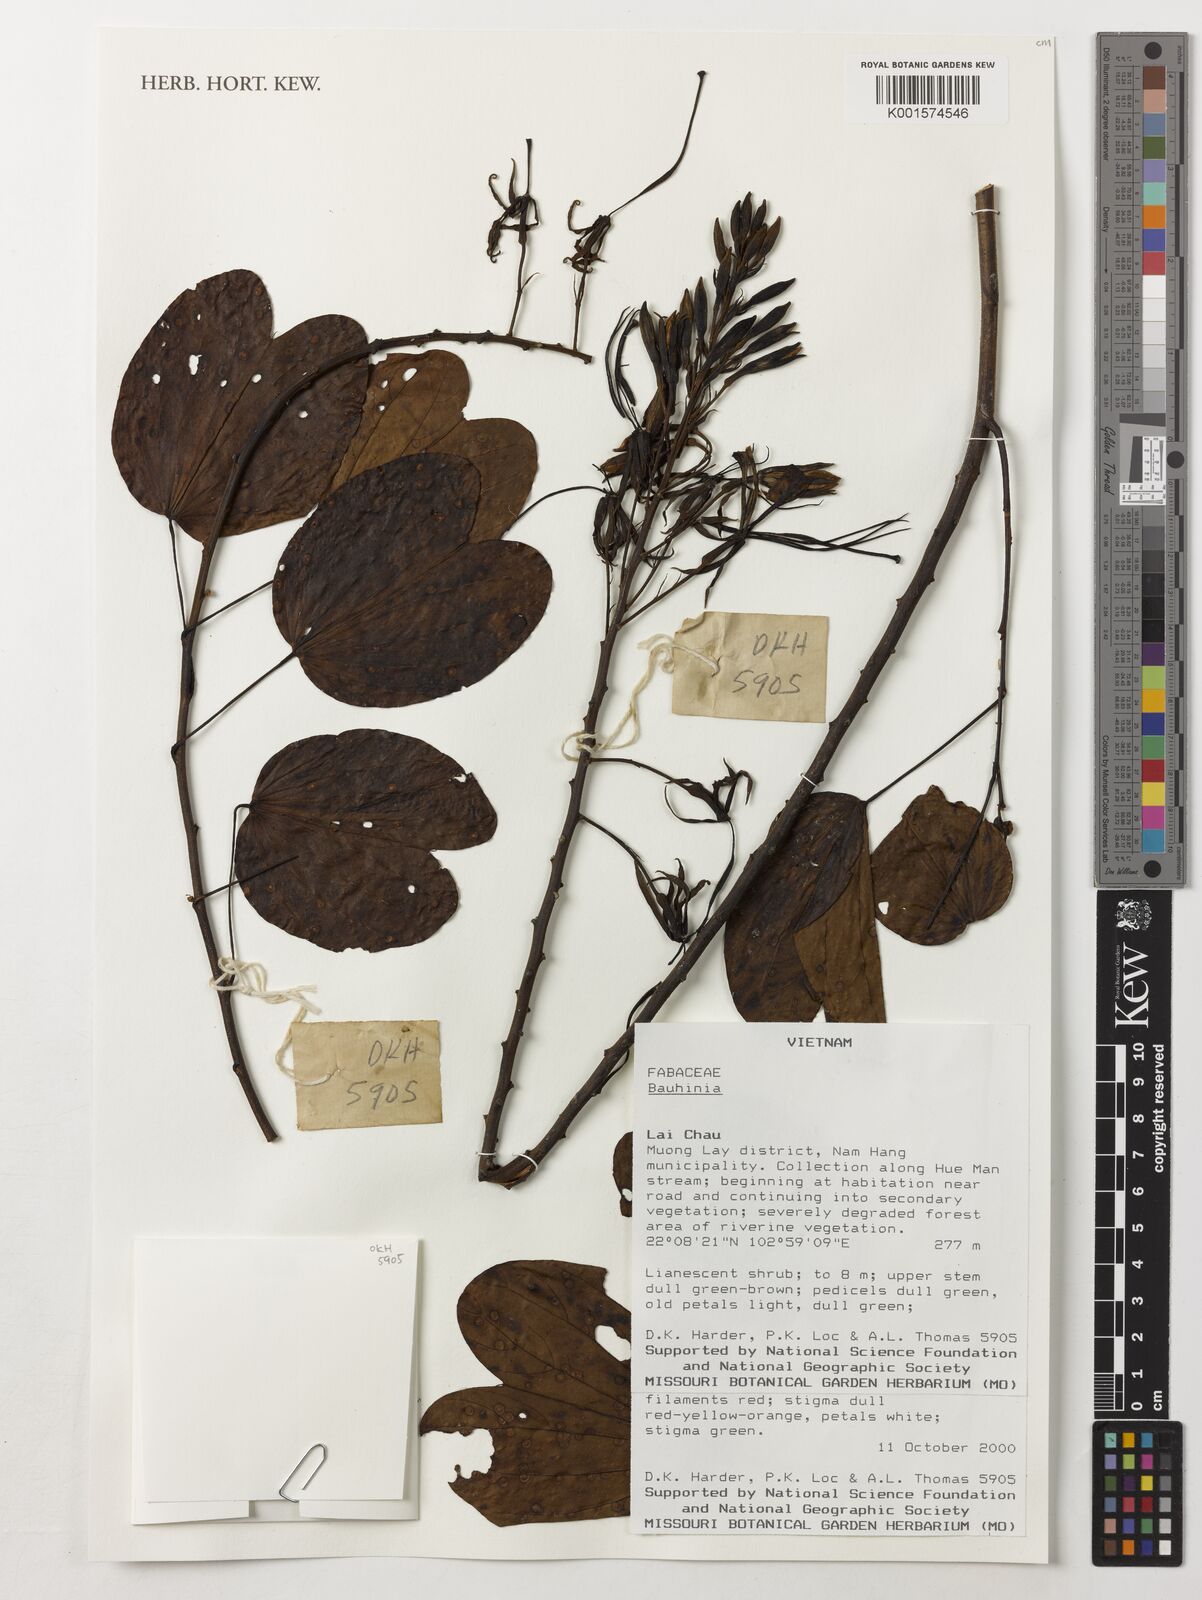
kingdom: Plantae
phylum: Tracheophyta
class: Magnoliopsida
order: Fabales
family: Fabaceae
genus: Bauhinia
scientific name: Bauhinia
